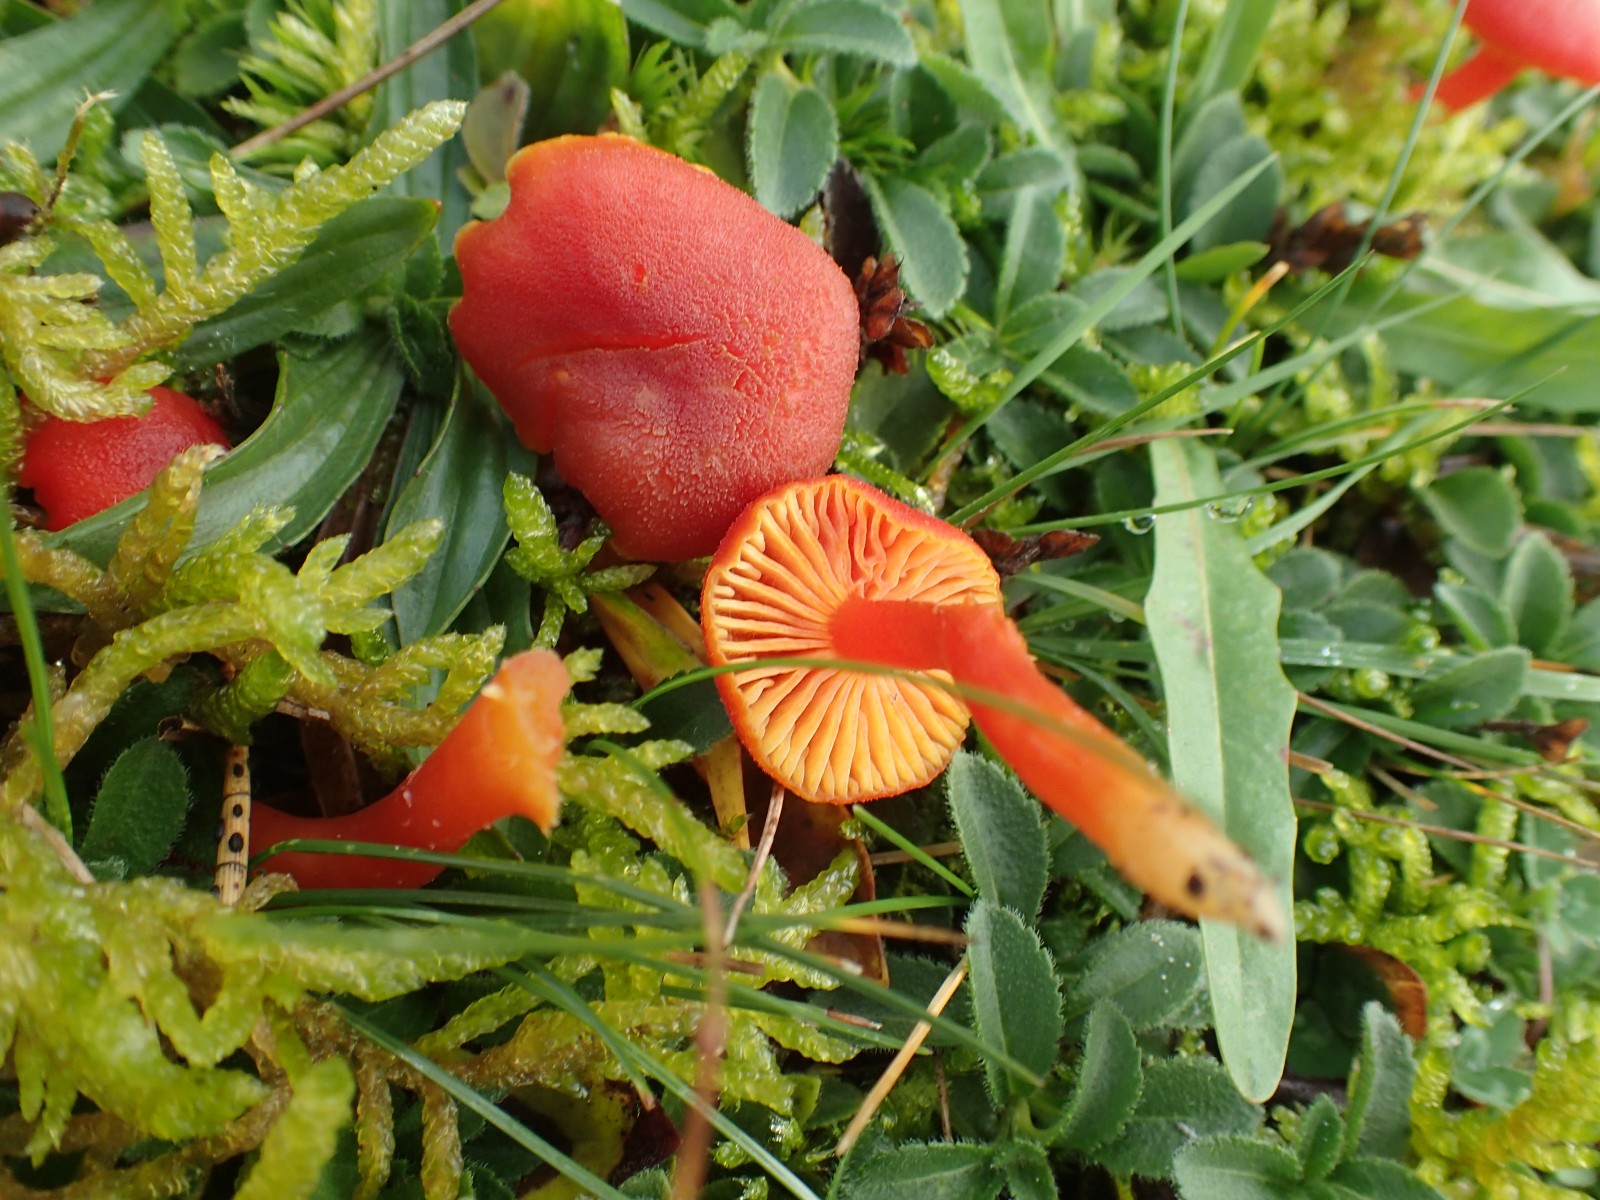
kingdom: Fungi
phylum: Basidiomycota
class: Agaricomycetes
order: Agaricales
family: Hygrophoraceae
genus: Hygrocybe
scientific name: Hygrocybe miniata
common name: mønje-vokshat
